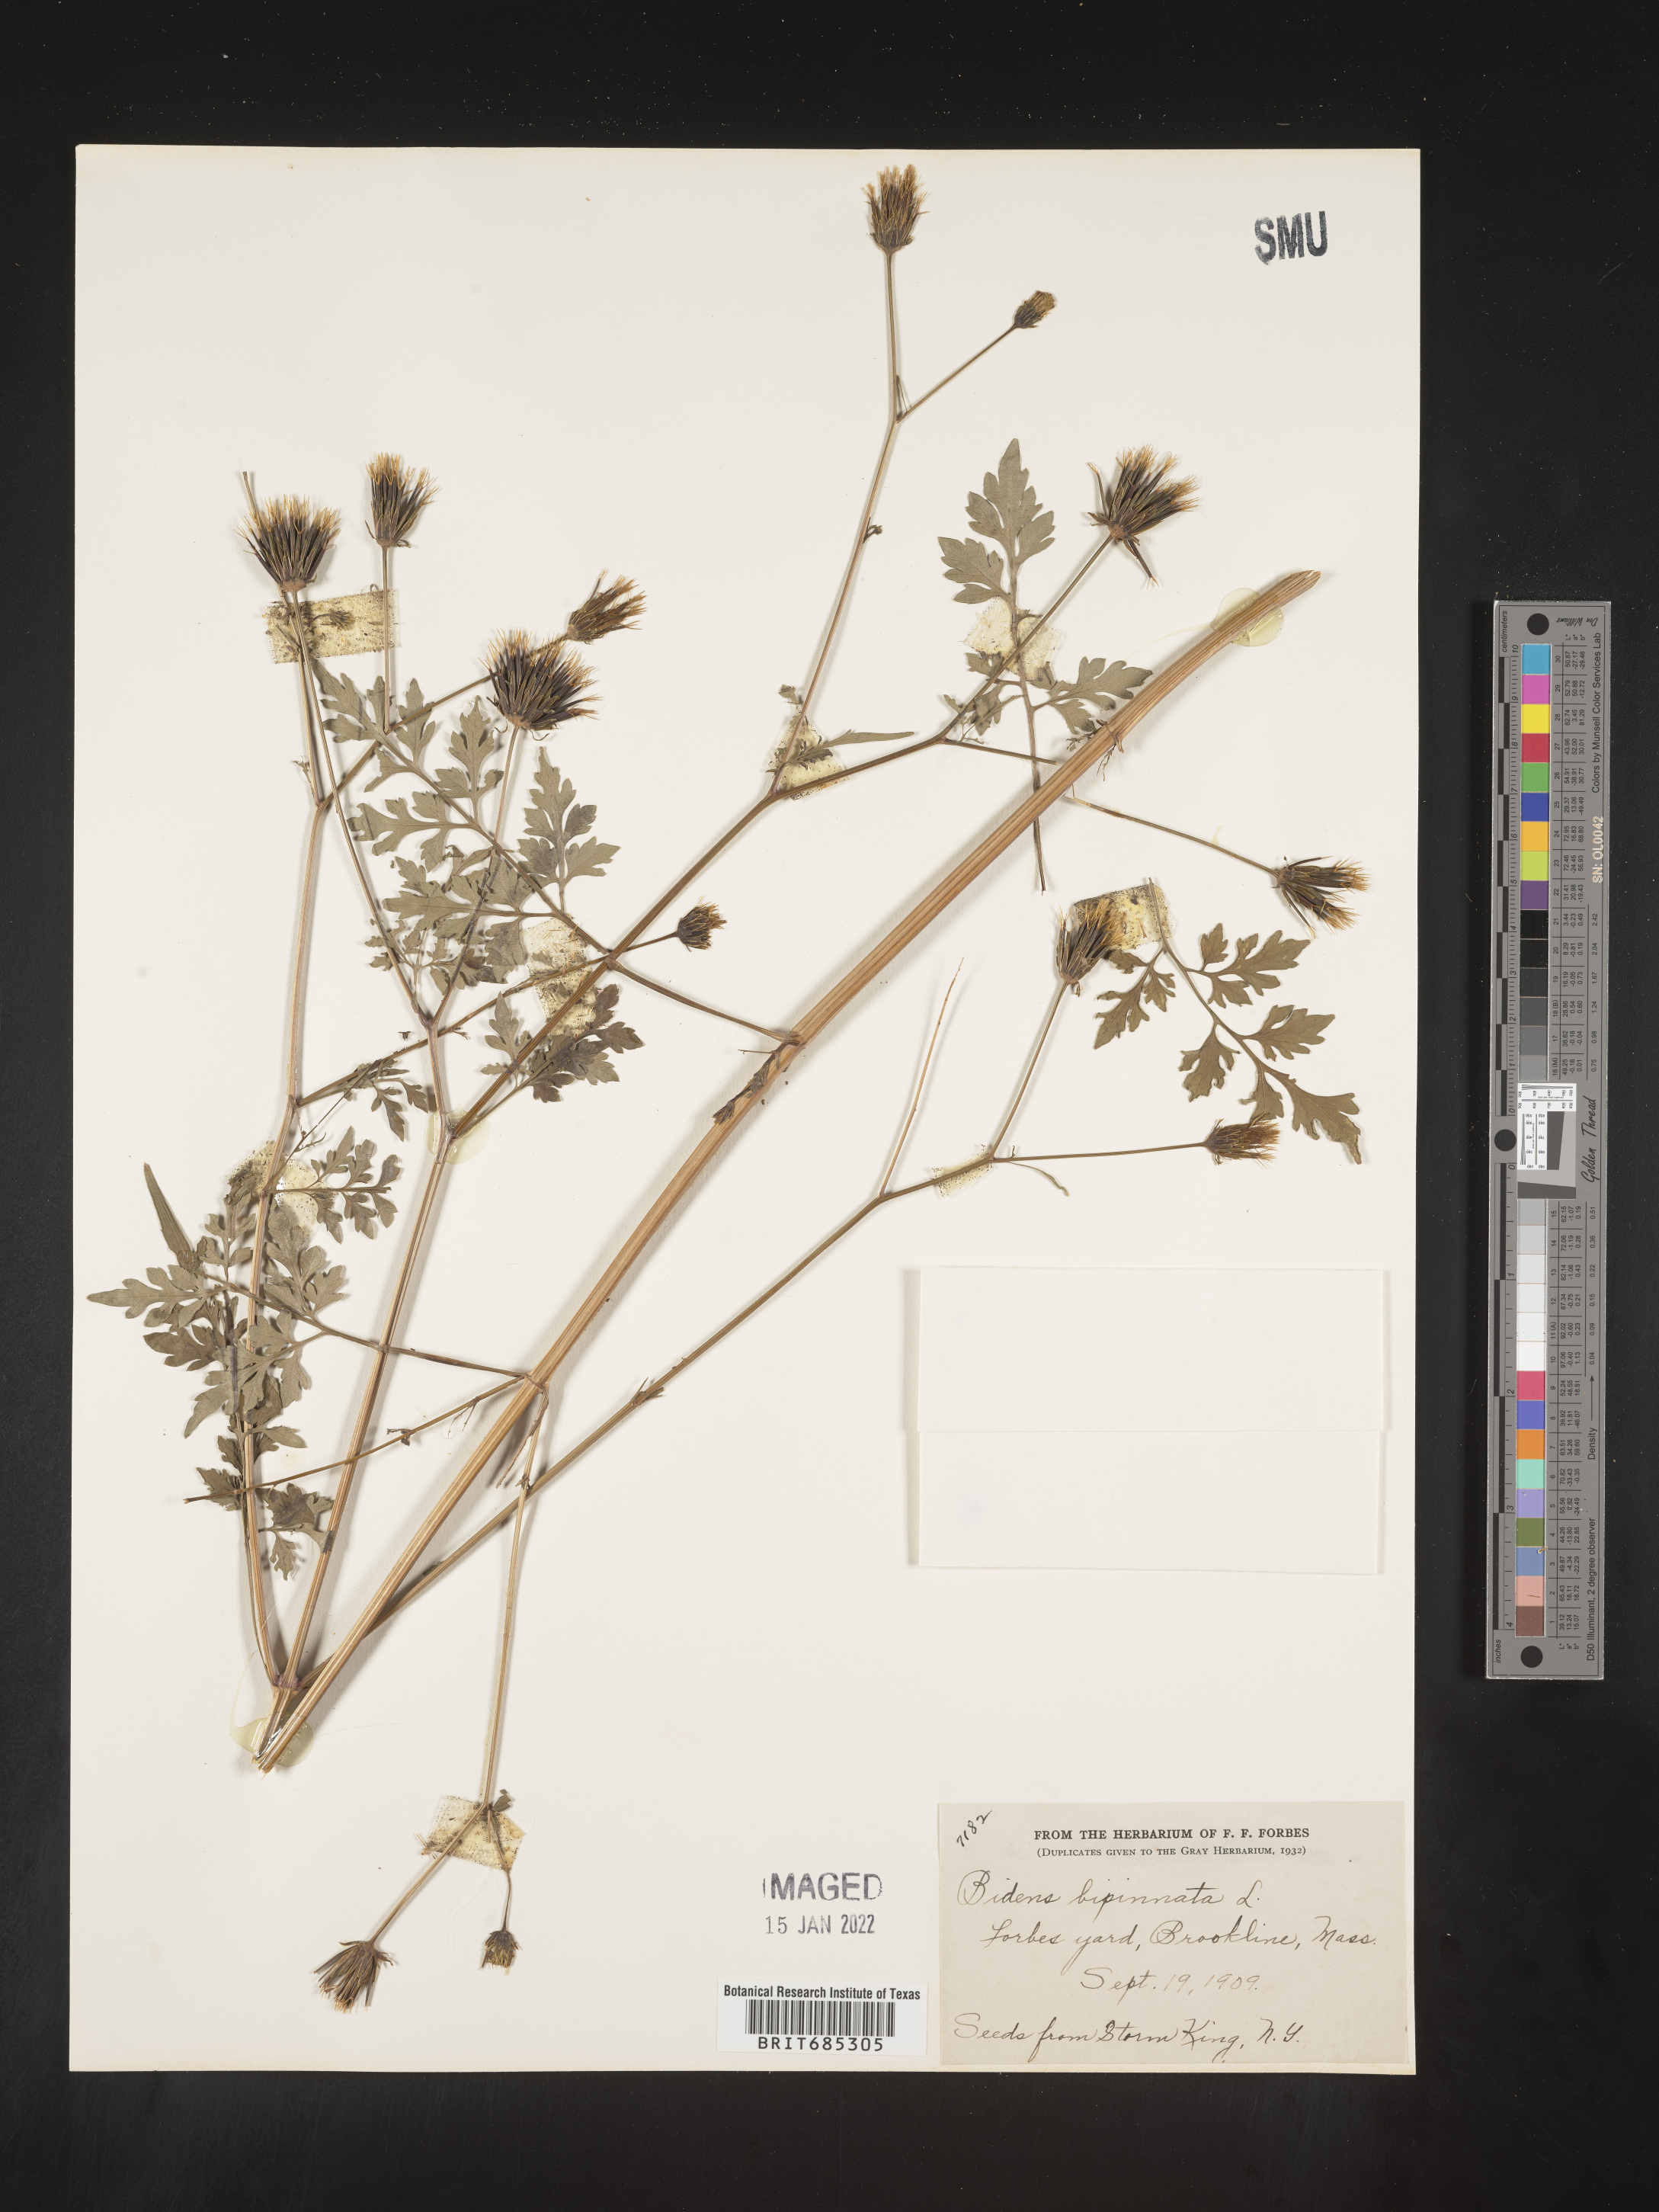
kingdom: Plantae
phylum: Tracheophyta
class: Magnoliopsida
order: Asterales
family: Asteraceae
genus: Bidens
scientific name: Bidens
